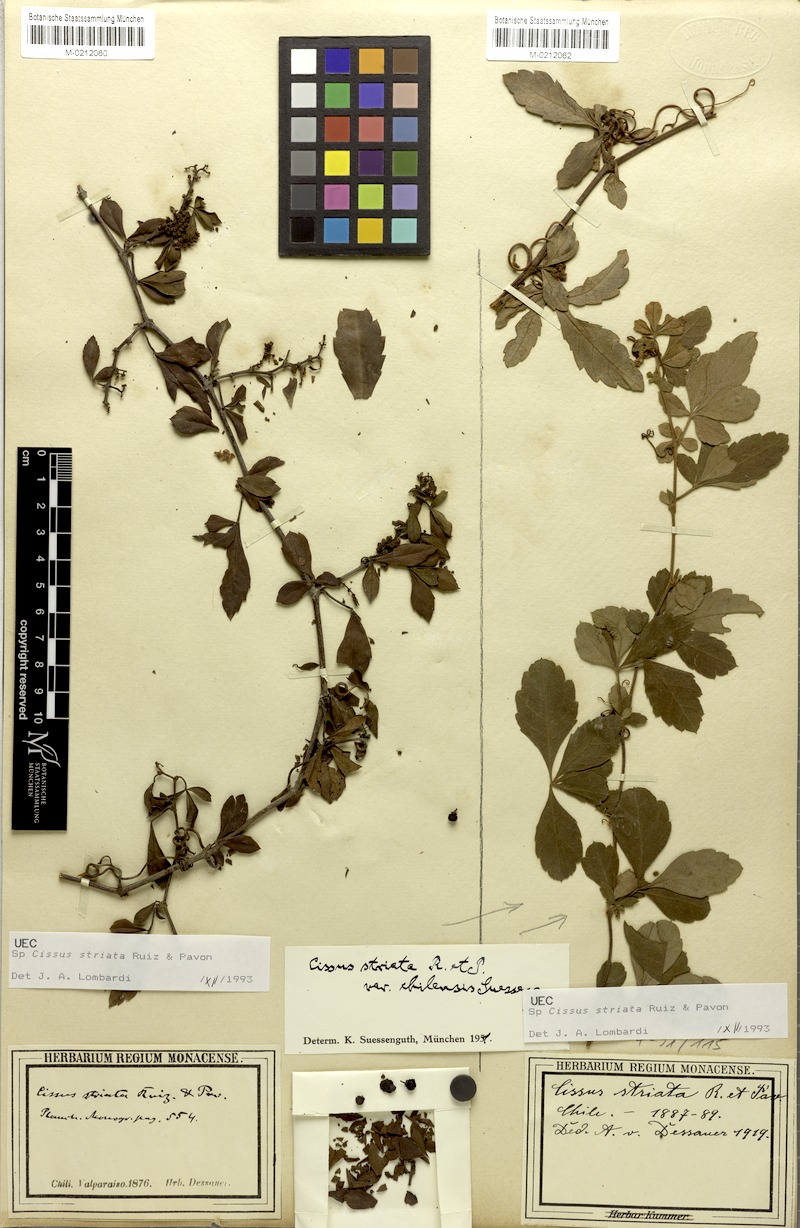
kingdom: Plantae
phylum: Tracheophyta
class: Magnoliopsida
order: Vitales
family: Vitaceae
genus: Clematicissus
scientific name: Clematicissus striata
